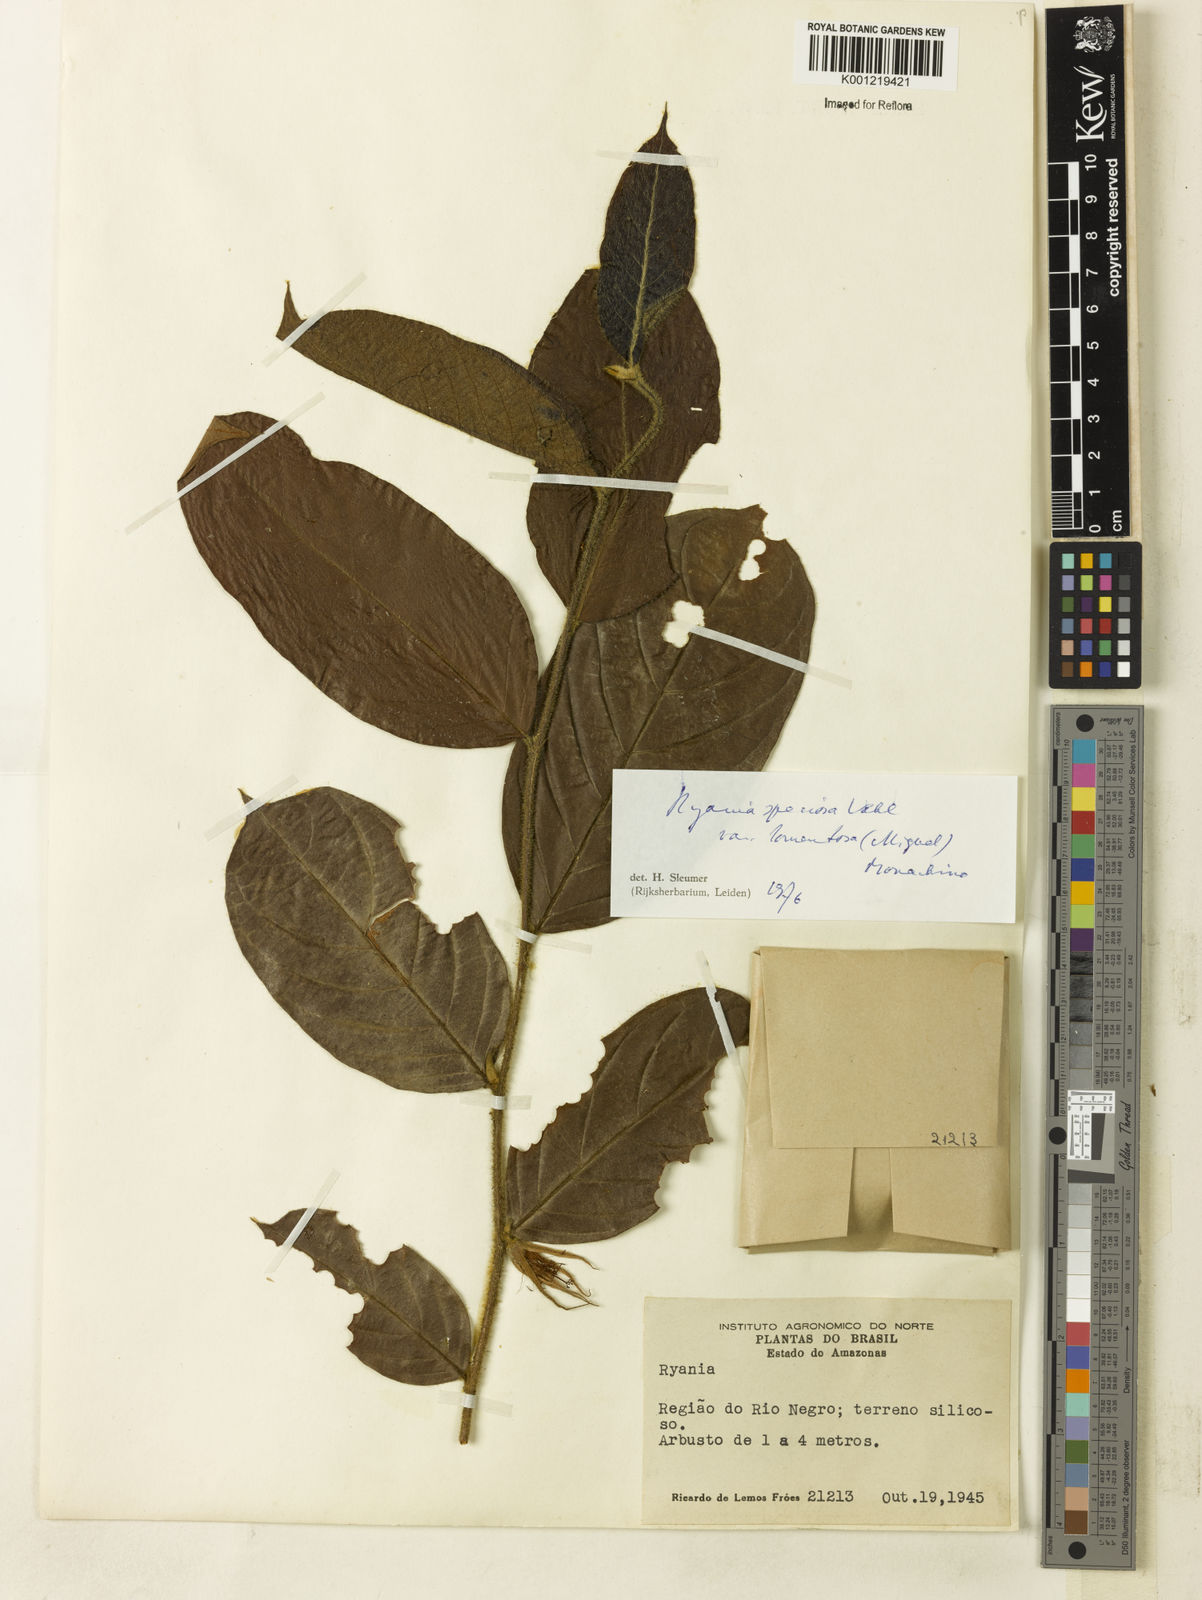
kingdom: Plantae
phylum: Tracheophyta
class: Magnoliopsida
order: Malpighiales
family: Salicaceae
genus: Ryania
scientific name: Ryania speciosa
